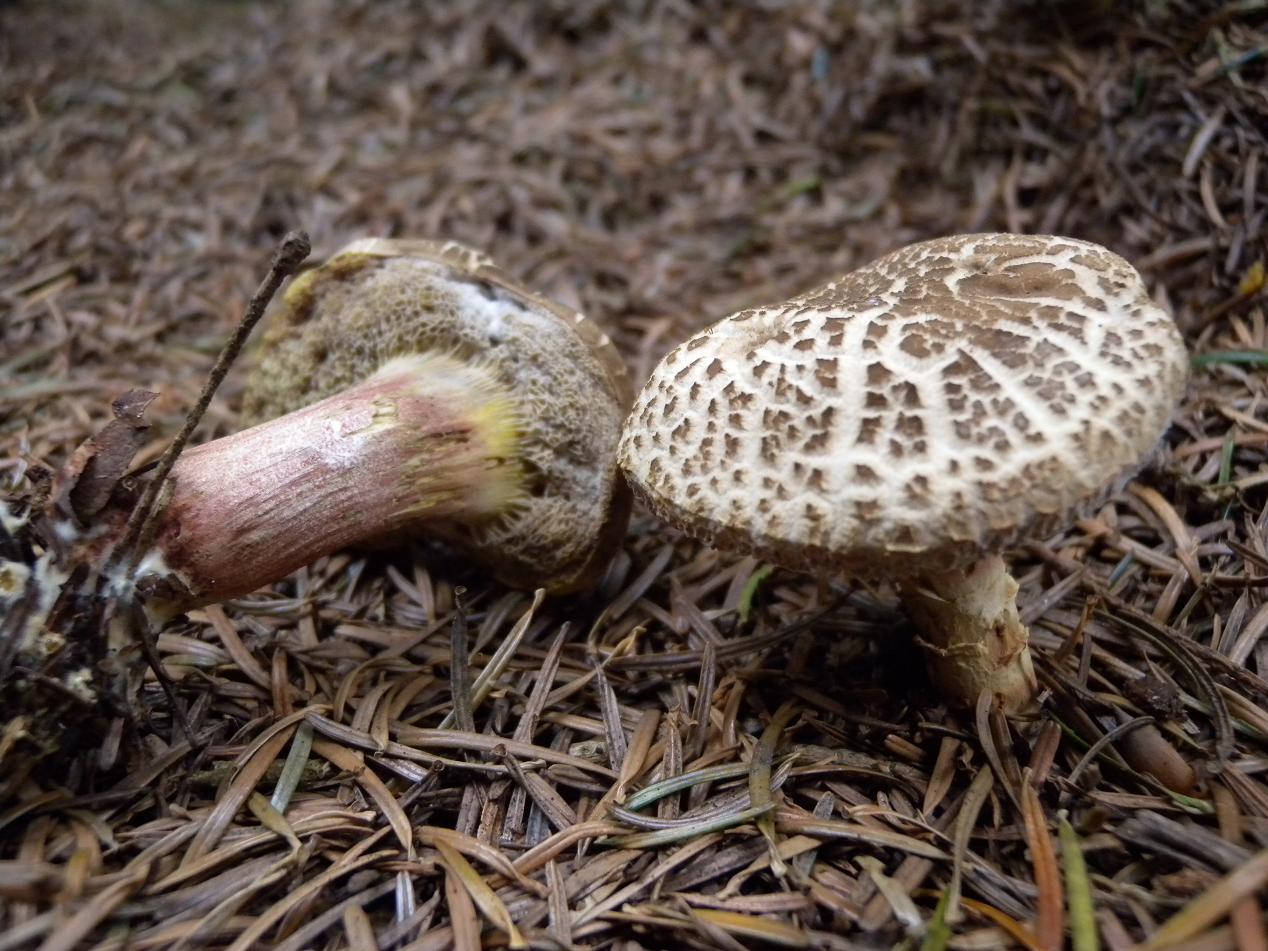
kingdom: Fungi
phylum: Basidiomycota
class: Agaricomycetes
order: Boletales
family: Boletaceae
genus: Xerocomellus
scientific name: Xerocomellus chrysenteron
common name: rødsprukken rørhat
